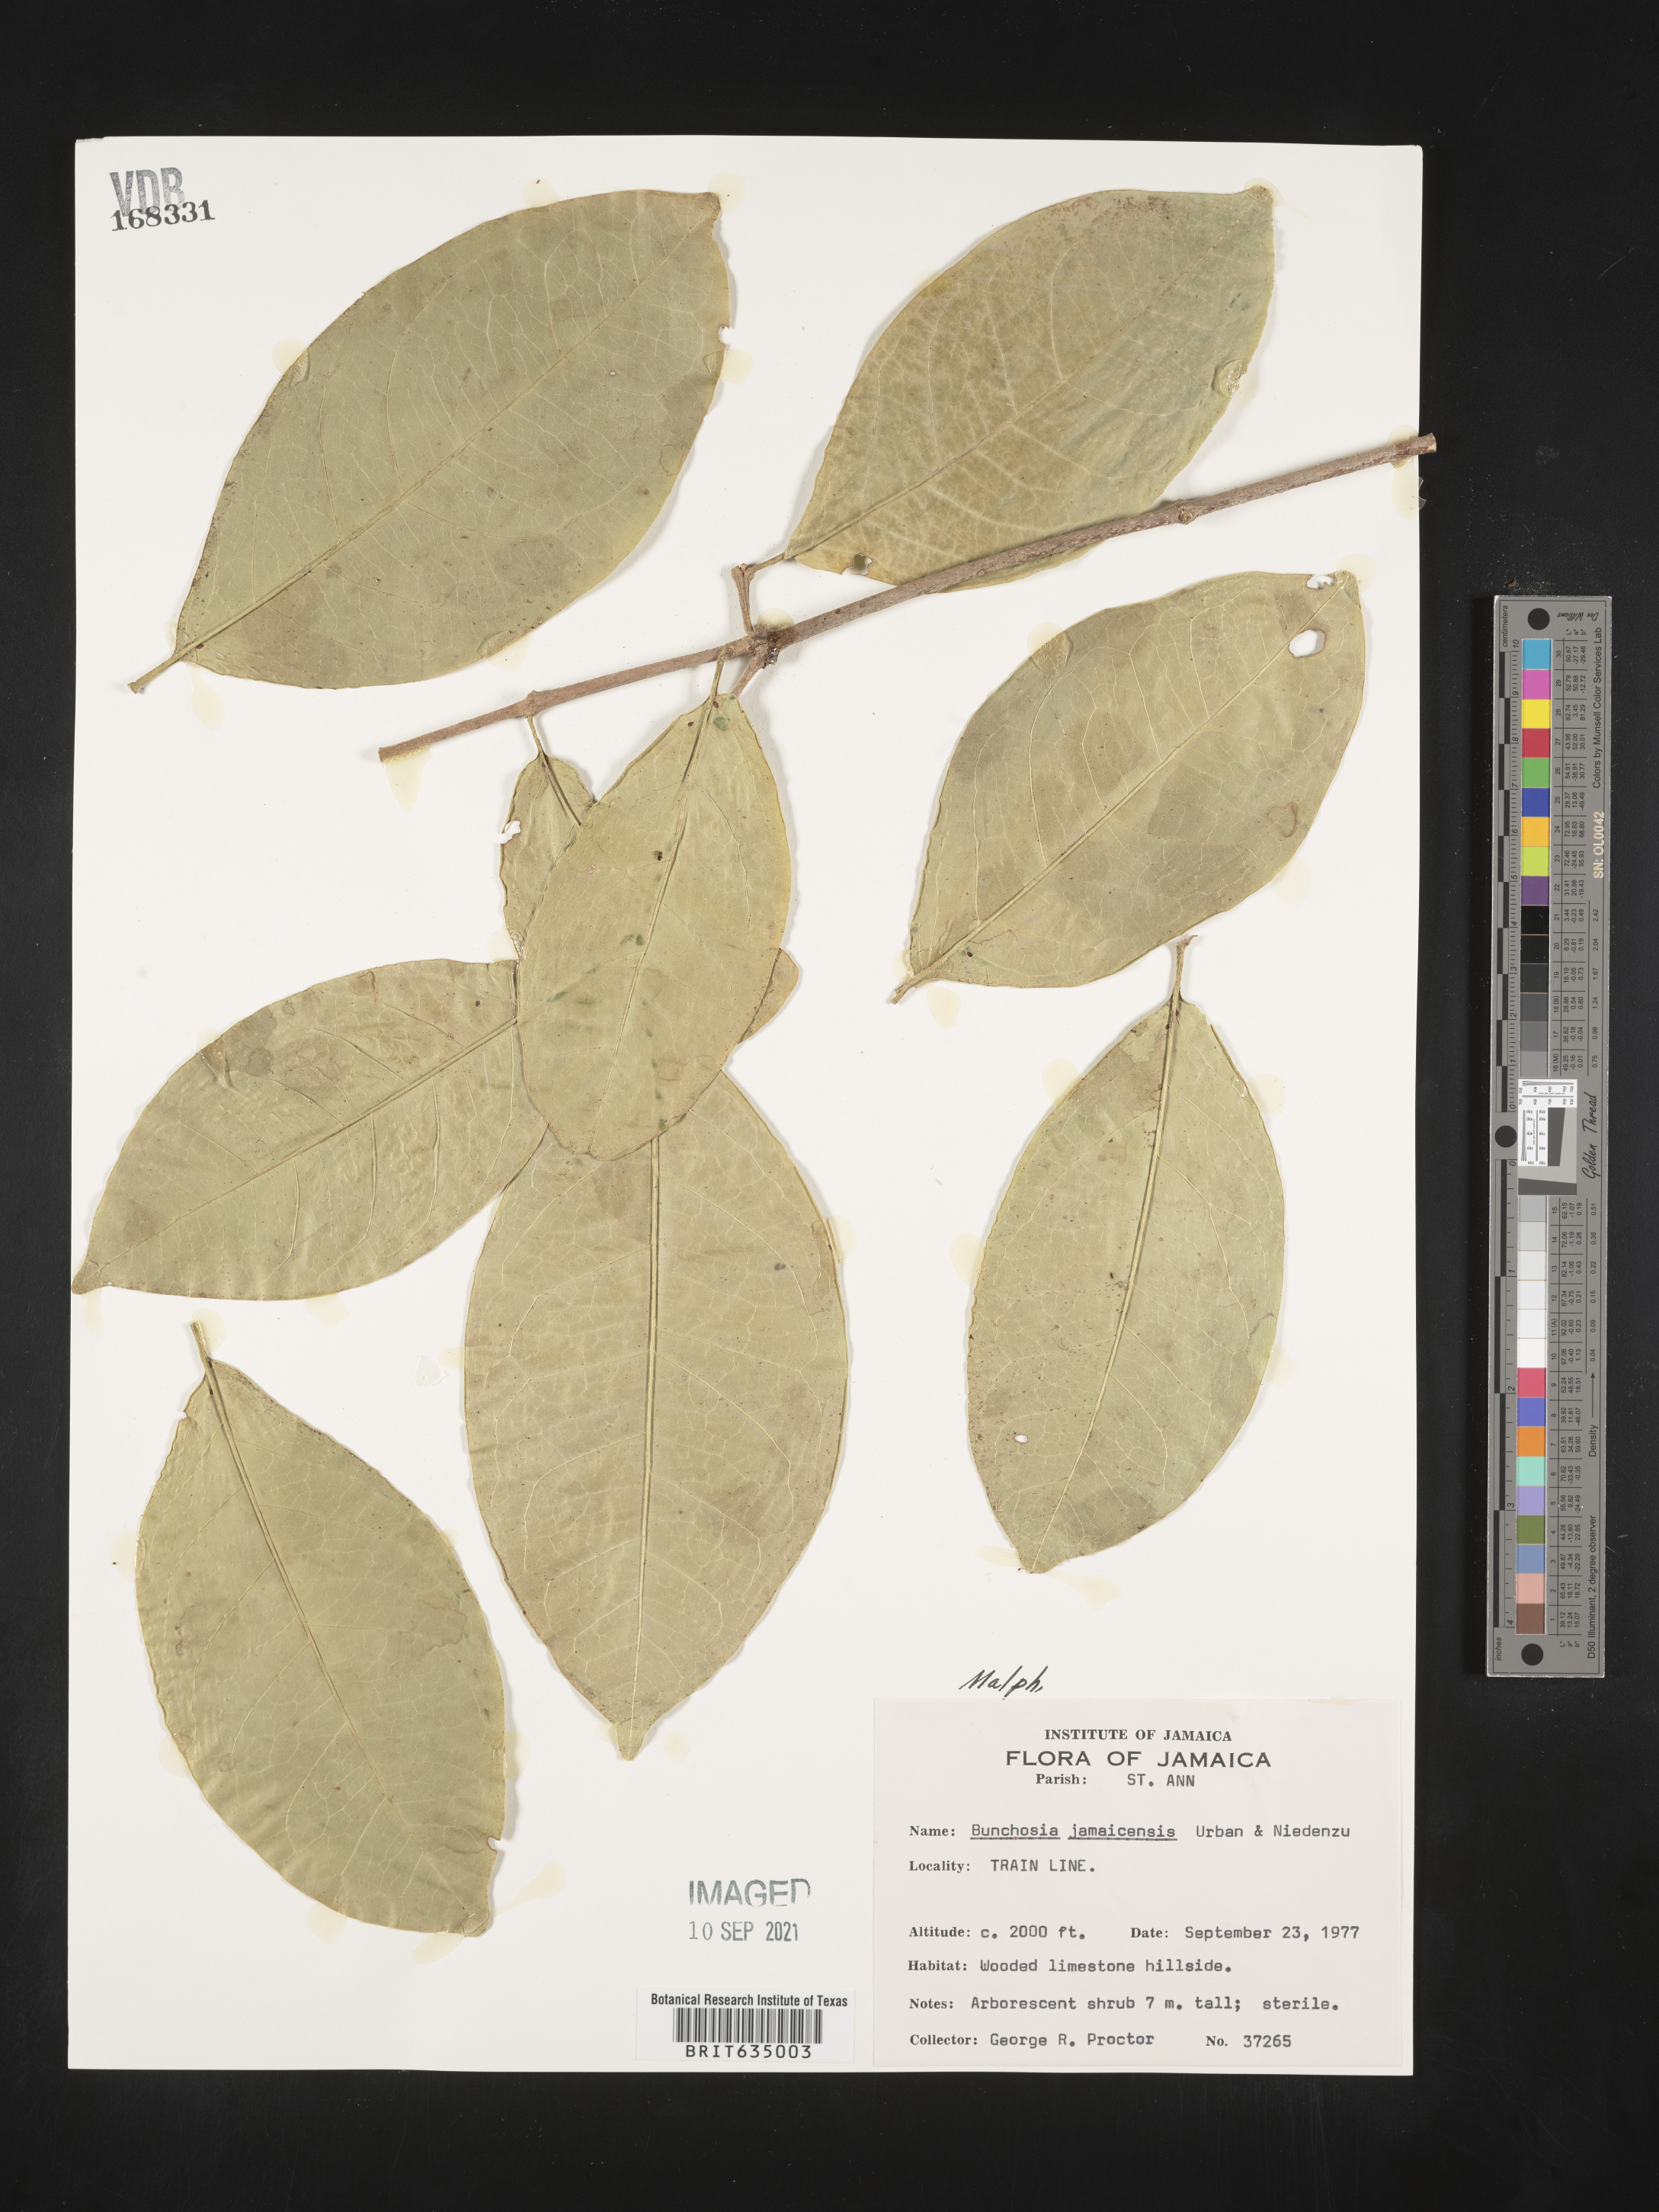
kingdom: Plantae
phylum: Tracheophyta
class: Magnoliopsida
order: Malpighiales
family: Malpighiaceae
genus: Bunchosia
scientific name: Bunchosia
